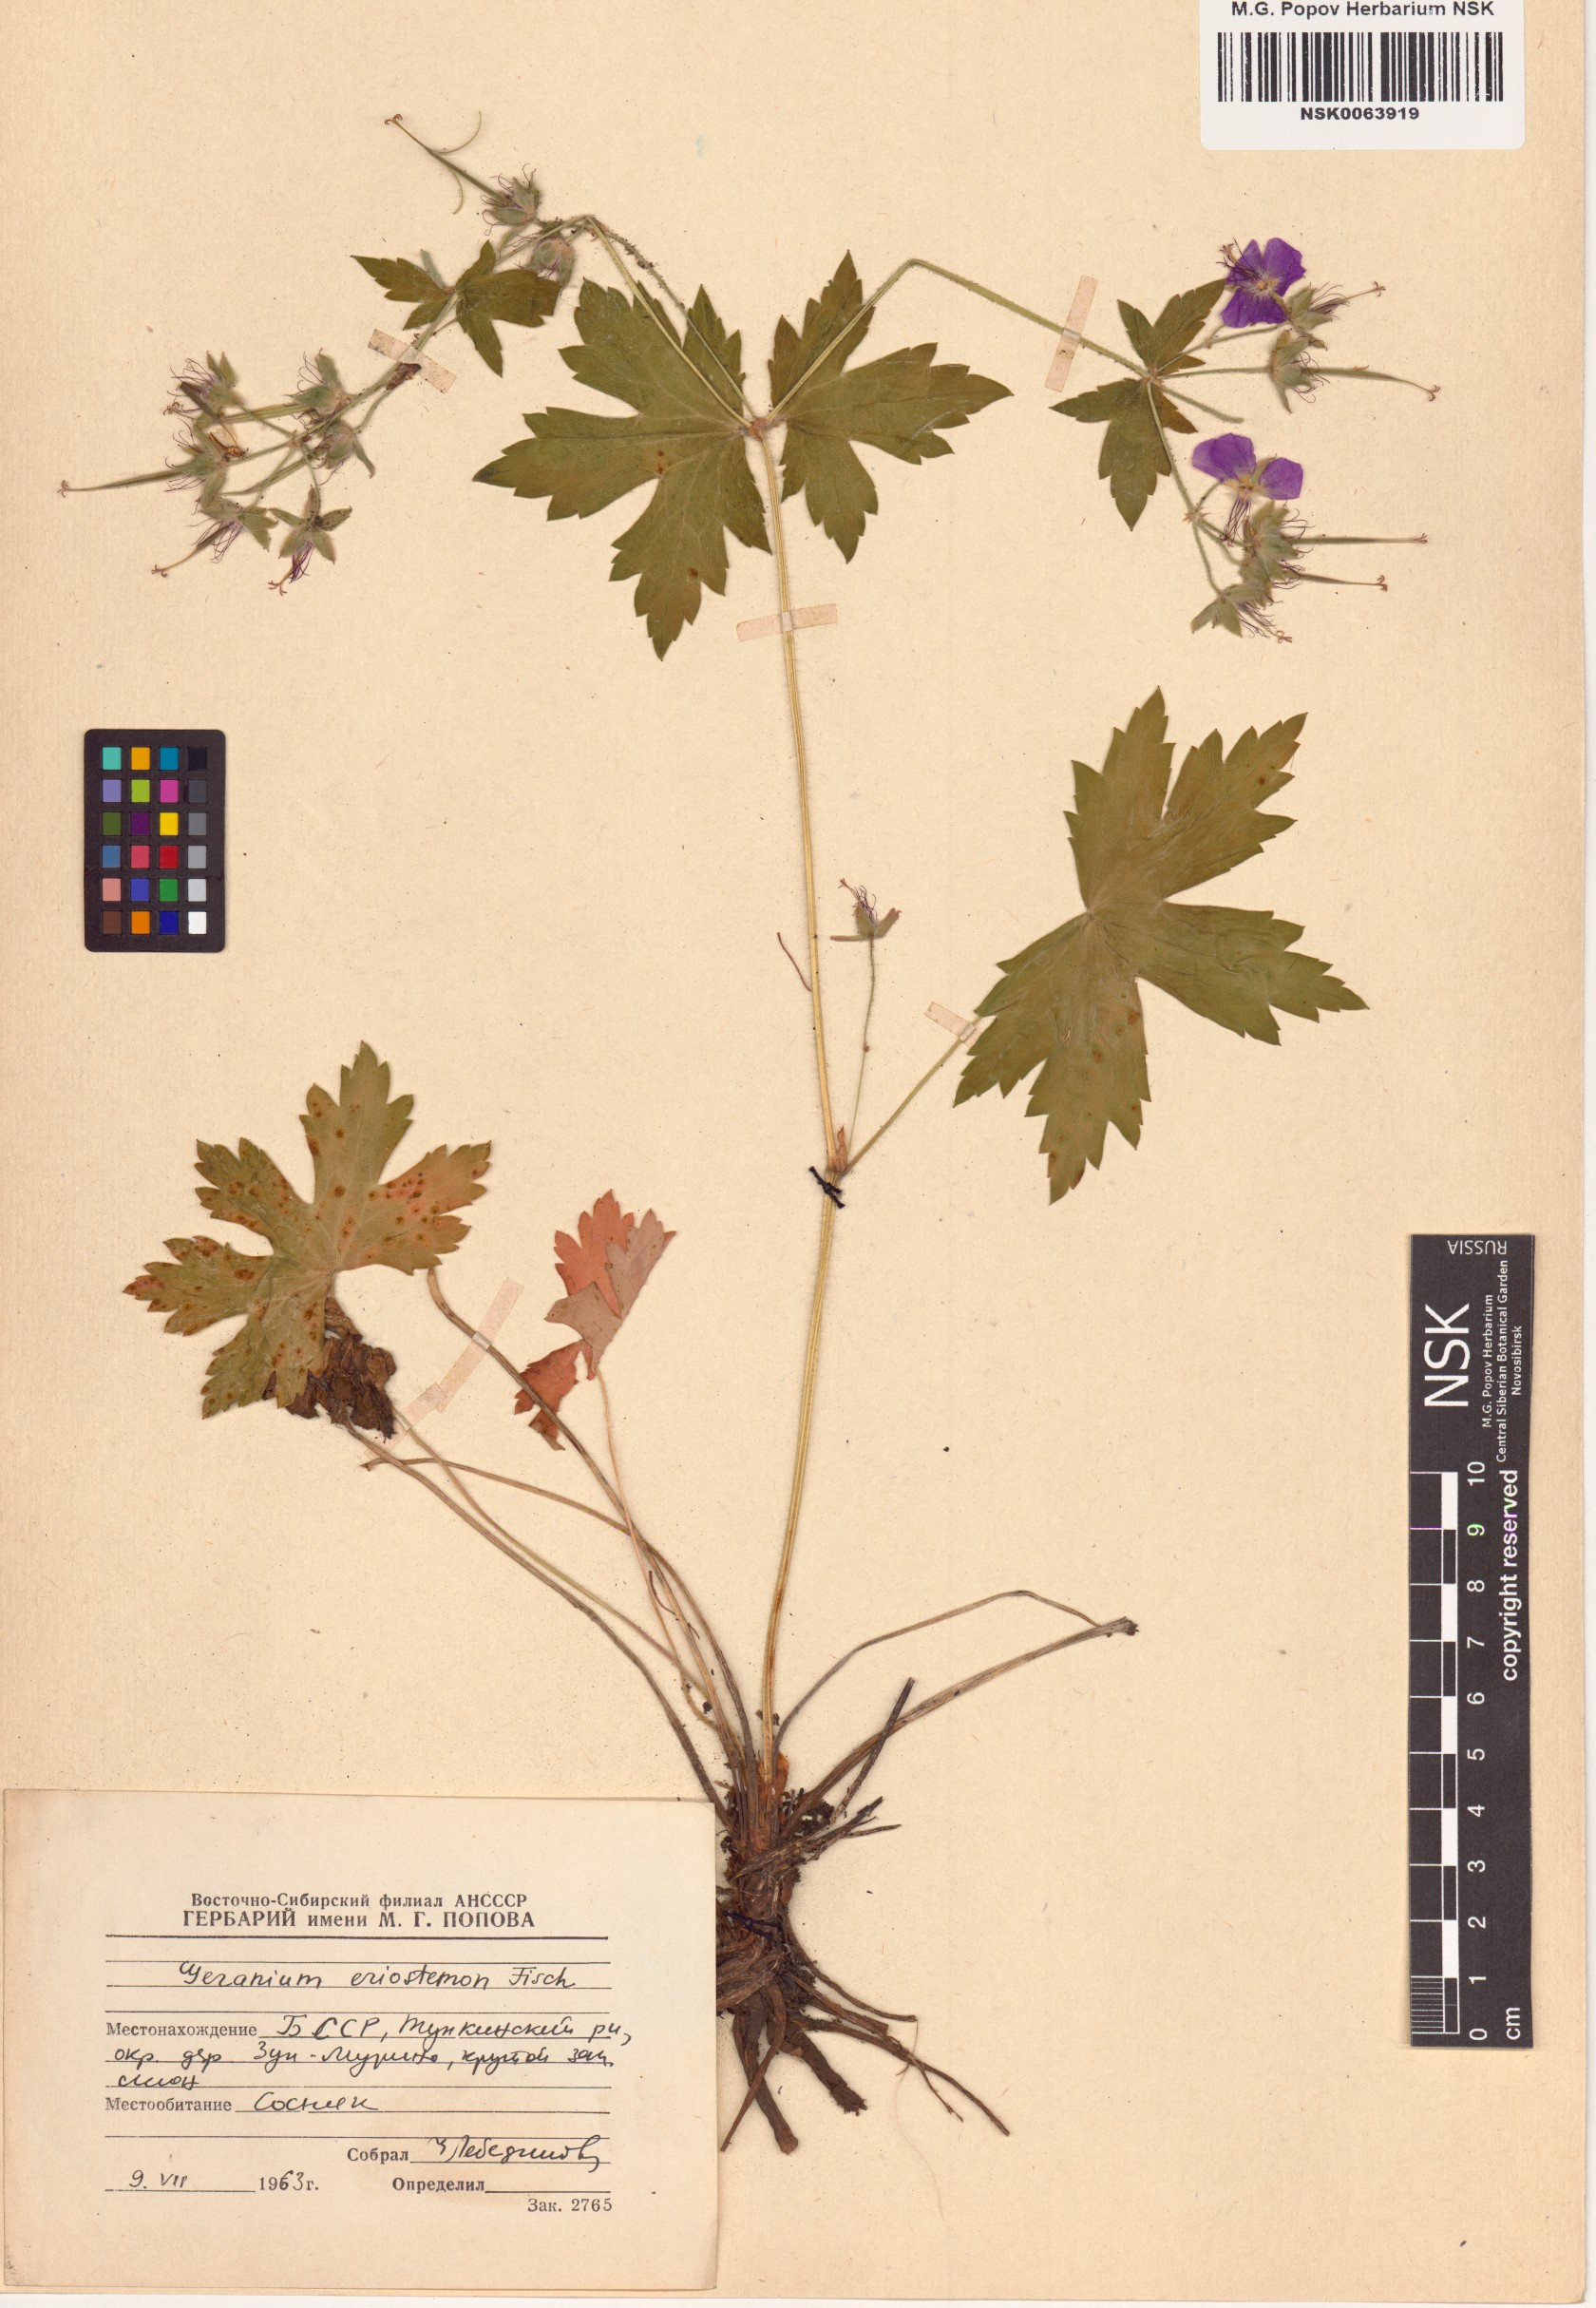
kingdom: Plantae
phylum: Tracheophyta
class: Magnoliopsida
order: Geraniales
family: Geraniaceae
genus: Geranium
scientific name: Geranium platyanthum
